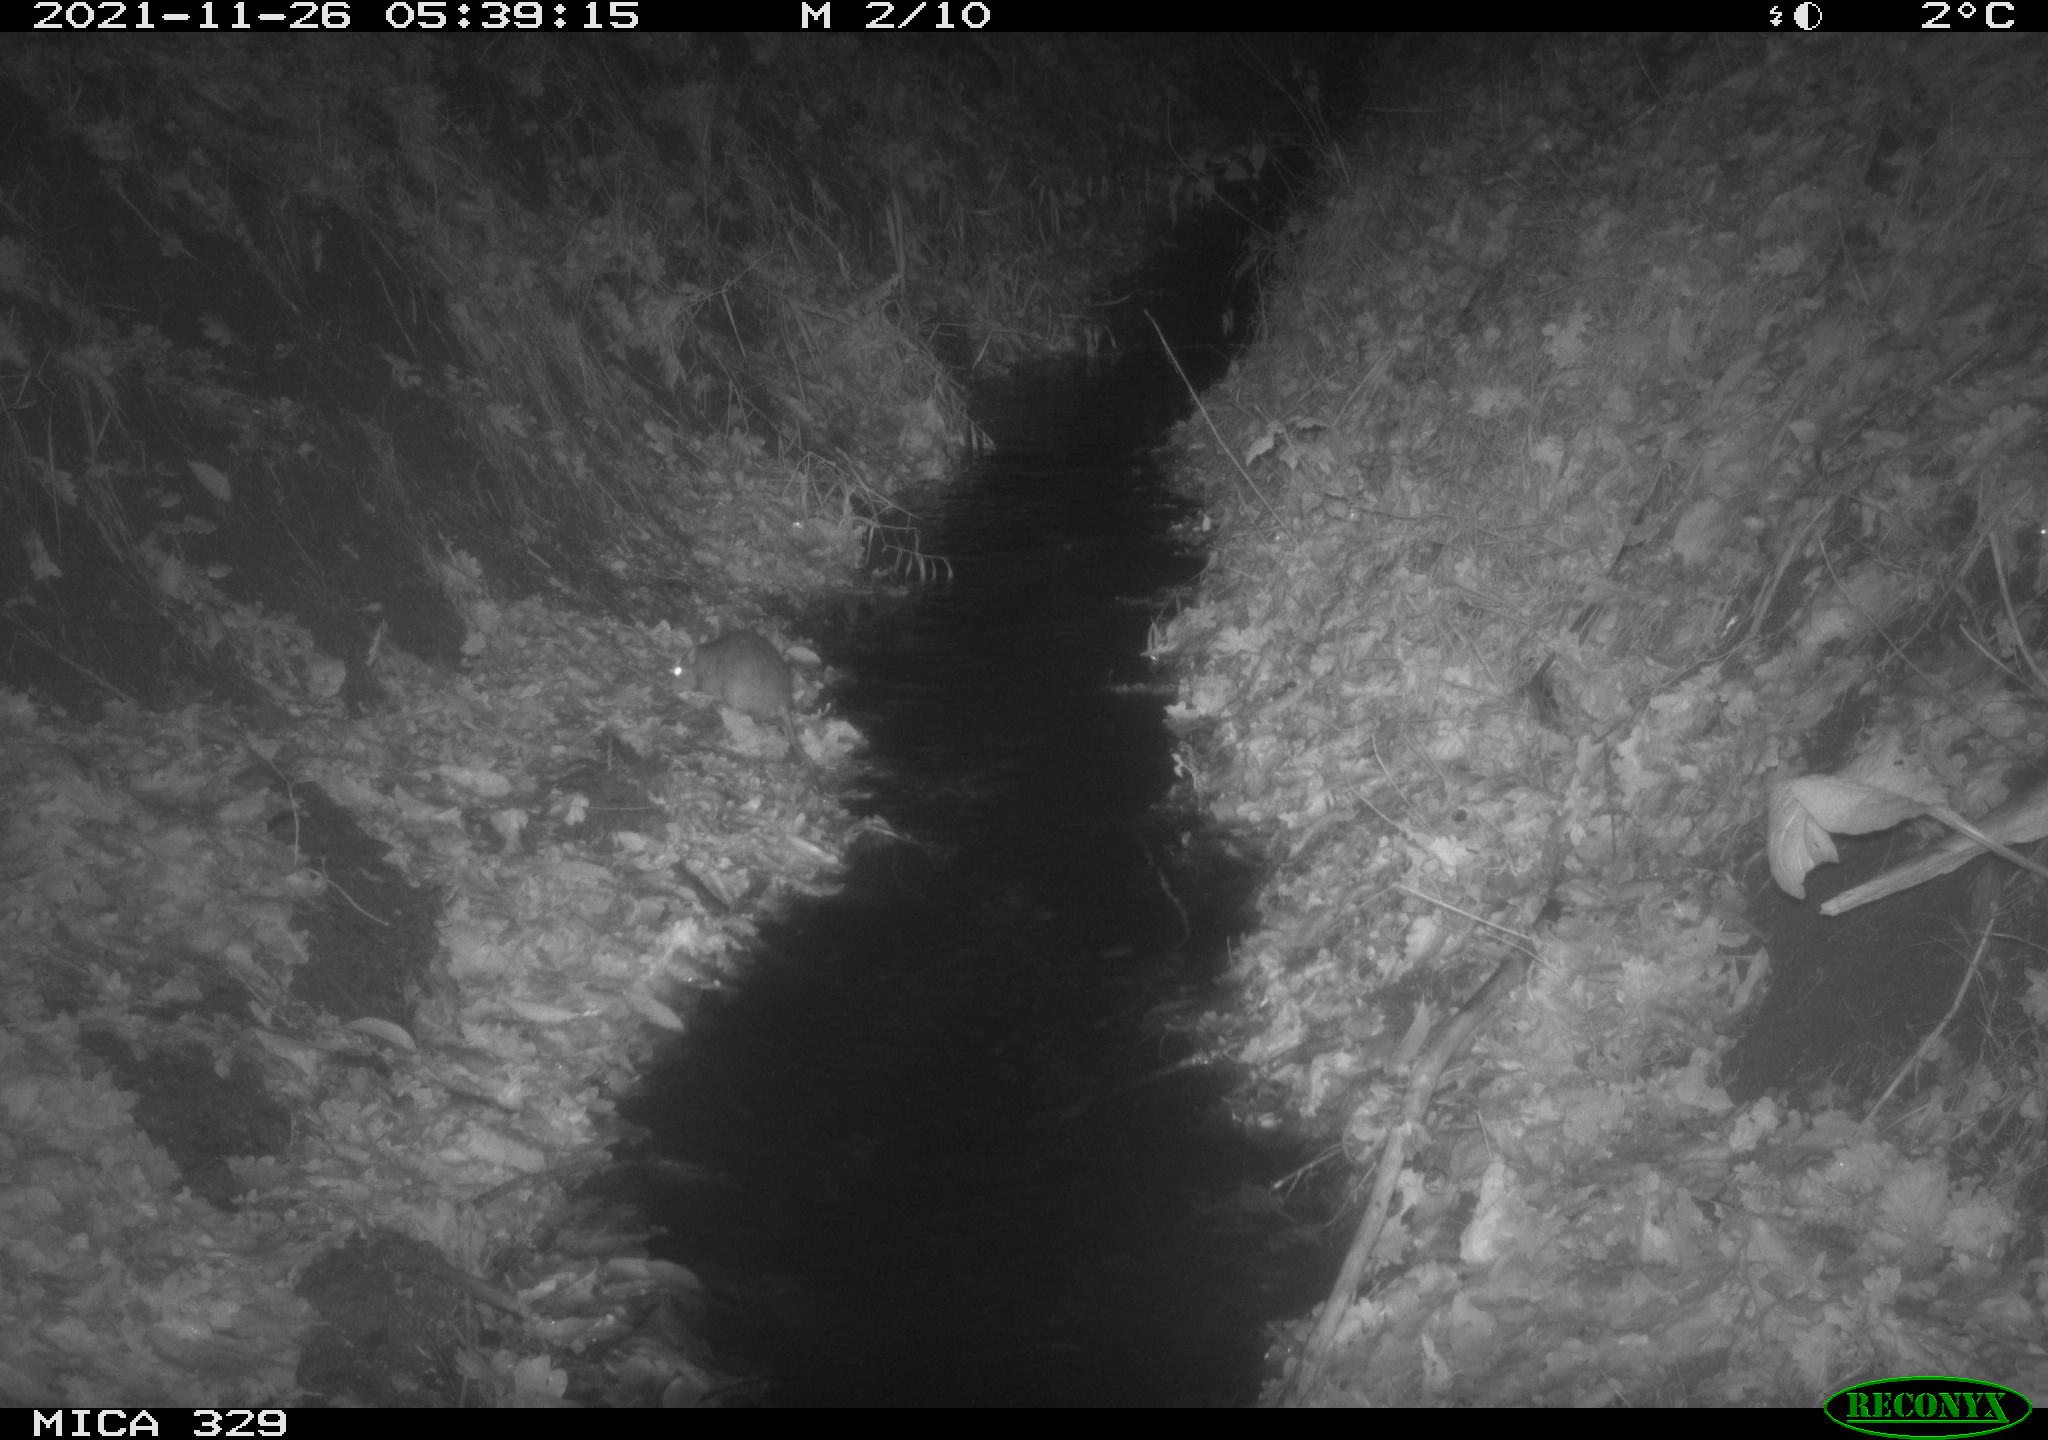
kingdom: Animalia
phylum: Chordata
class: Mammalia
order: Rodentia
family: Muridae
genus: Rattus
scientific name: Rattus norvegicus
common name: Brown rat
